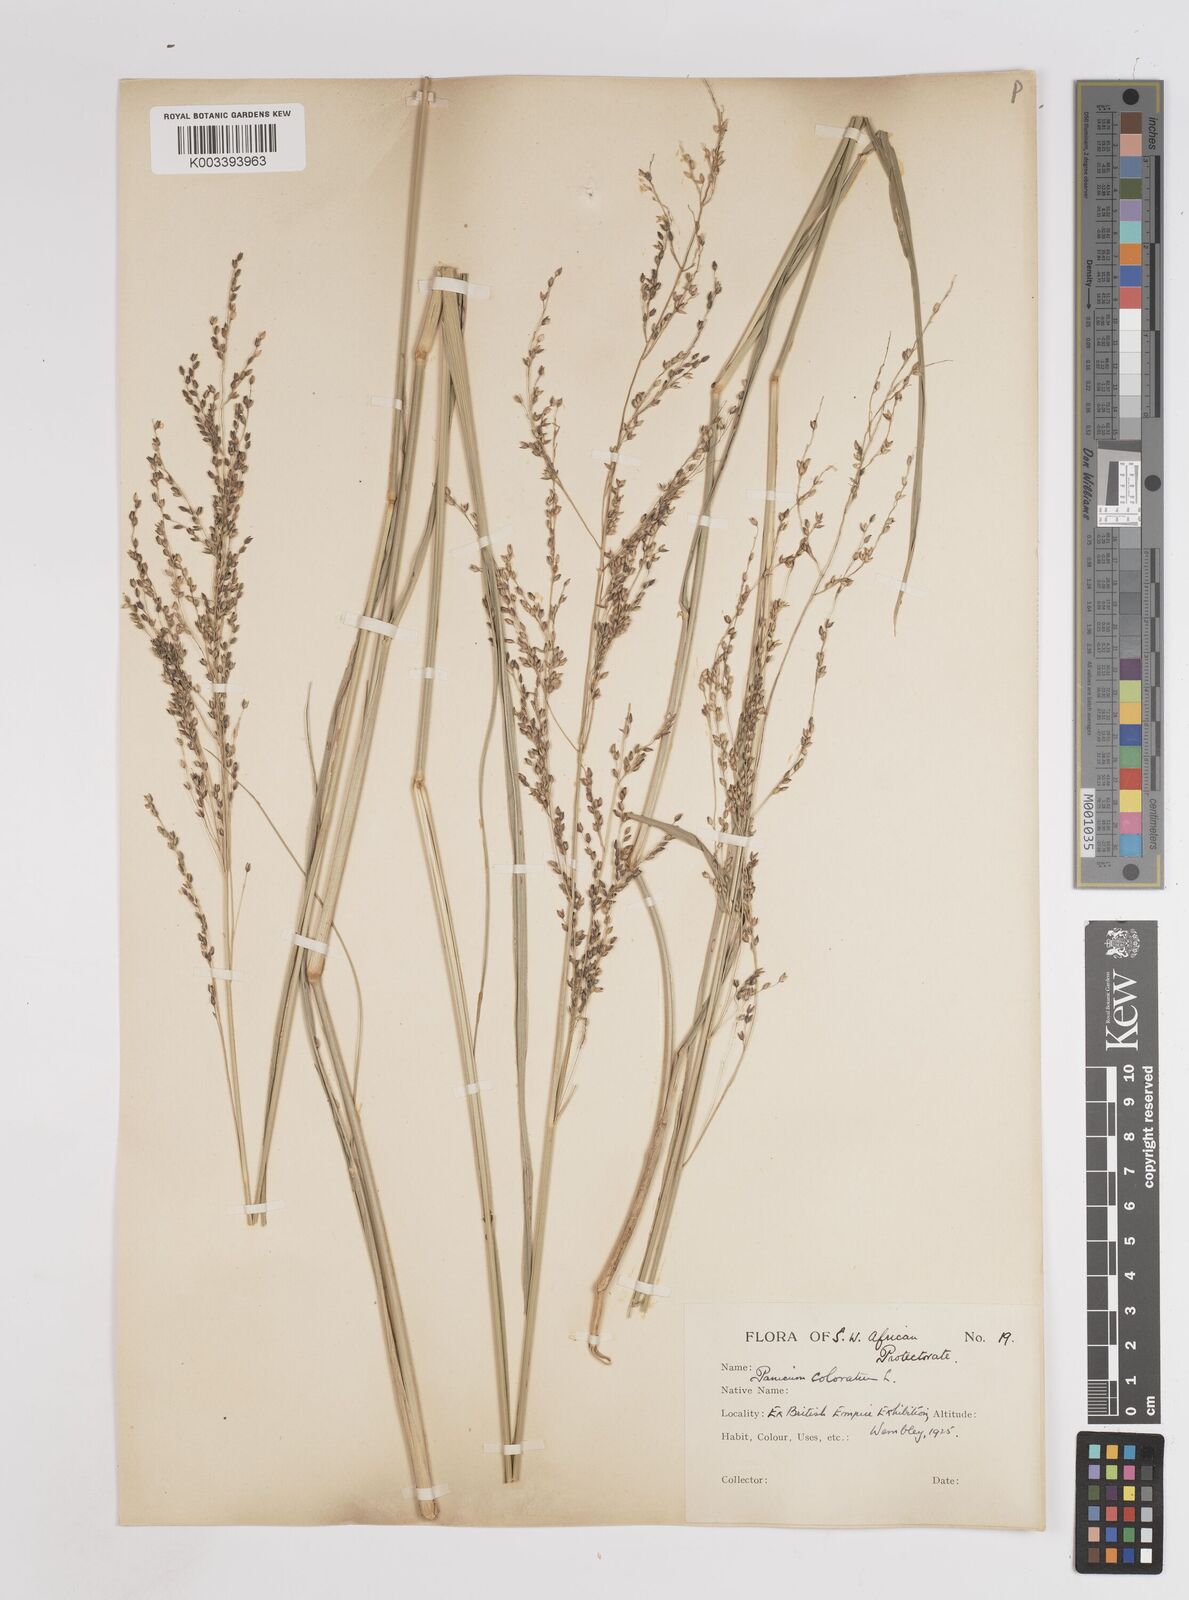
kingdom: Plantae
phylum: Tracheophyta
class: Liliopsida
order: Poales
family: Poaceae
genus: Panicum
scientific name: Panicum coloratum
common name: Kleingrass
